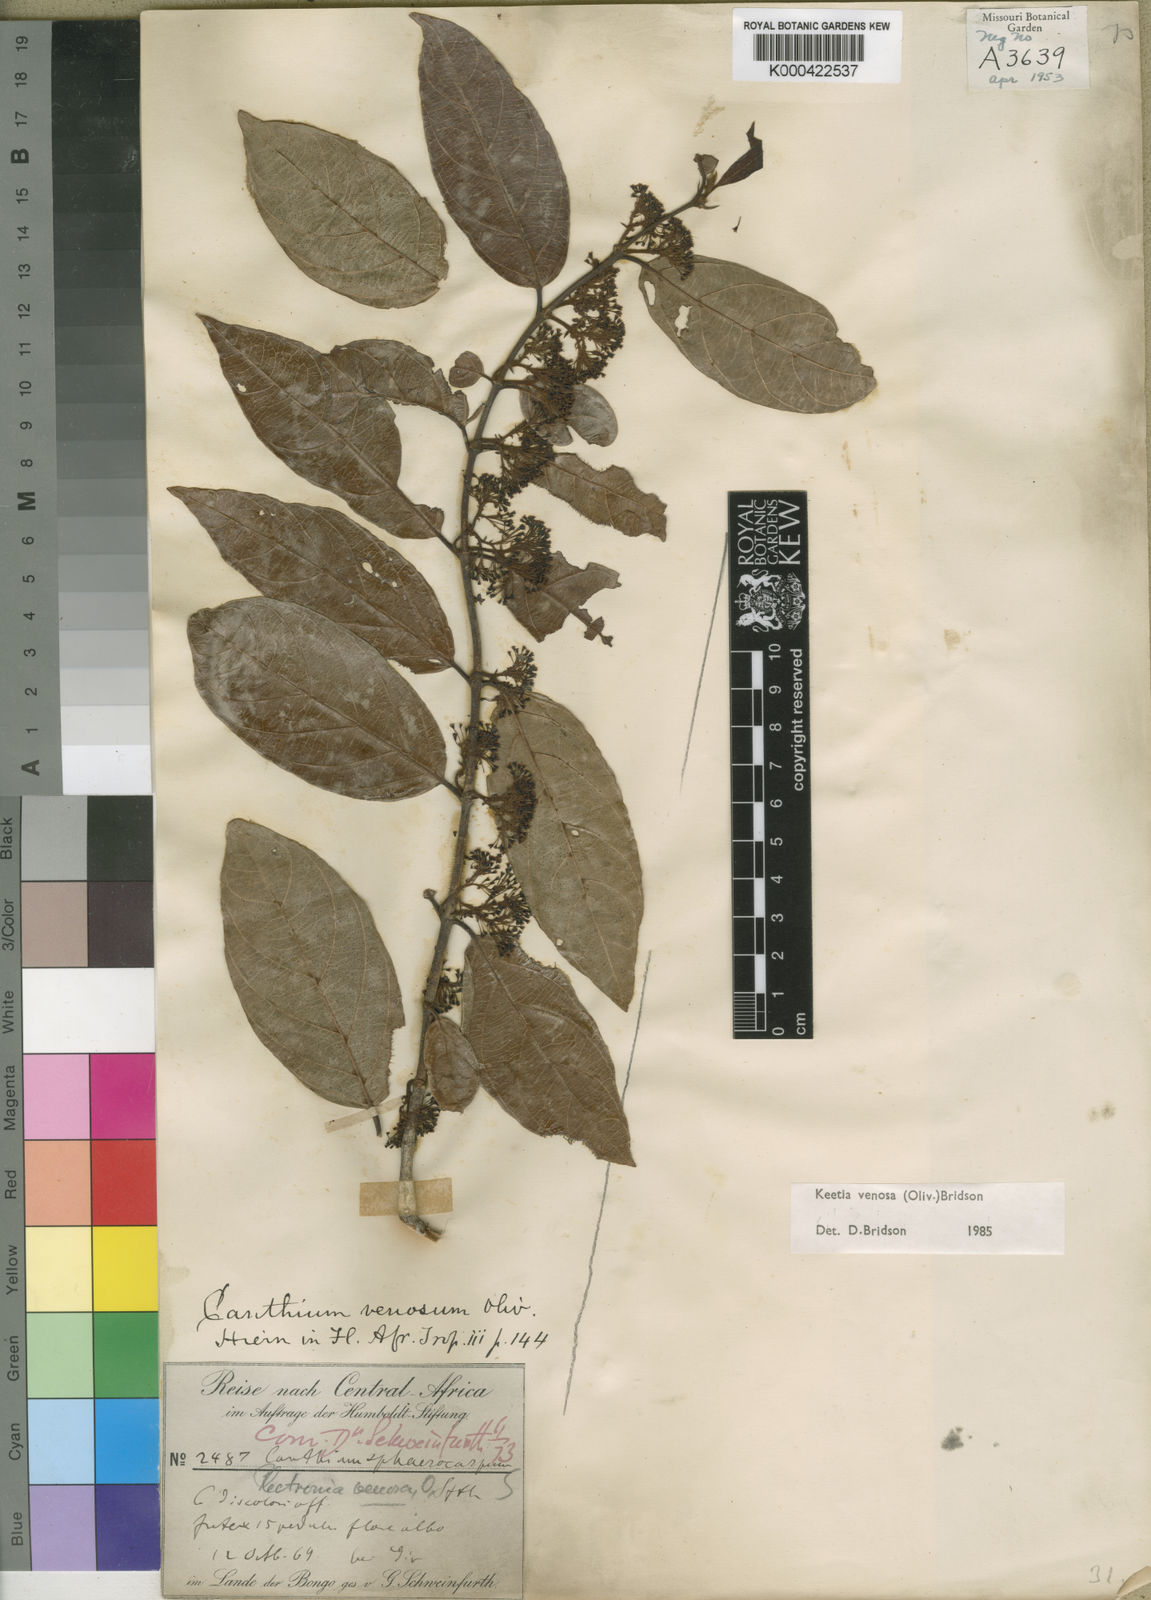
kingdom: Plantae
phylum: Tracheophyta
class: Magnoliopsida
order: Gentianales
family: Rubiaceae
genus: Keetia
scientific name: Keetia venosa
